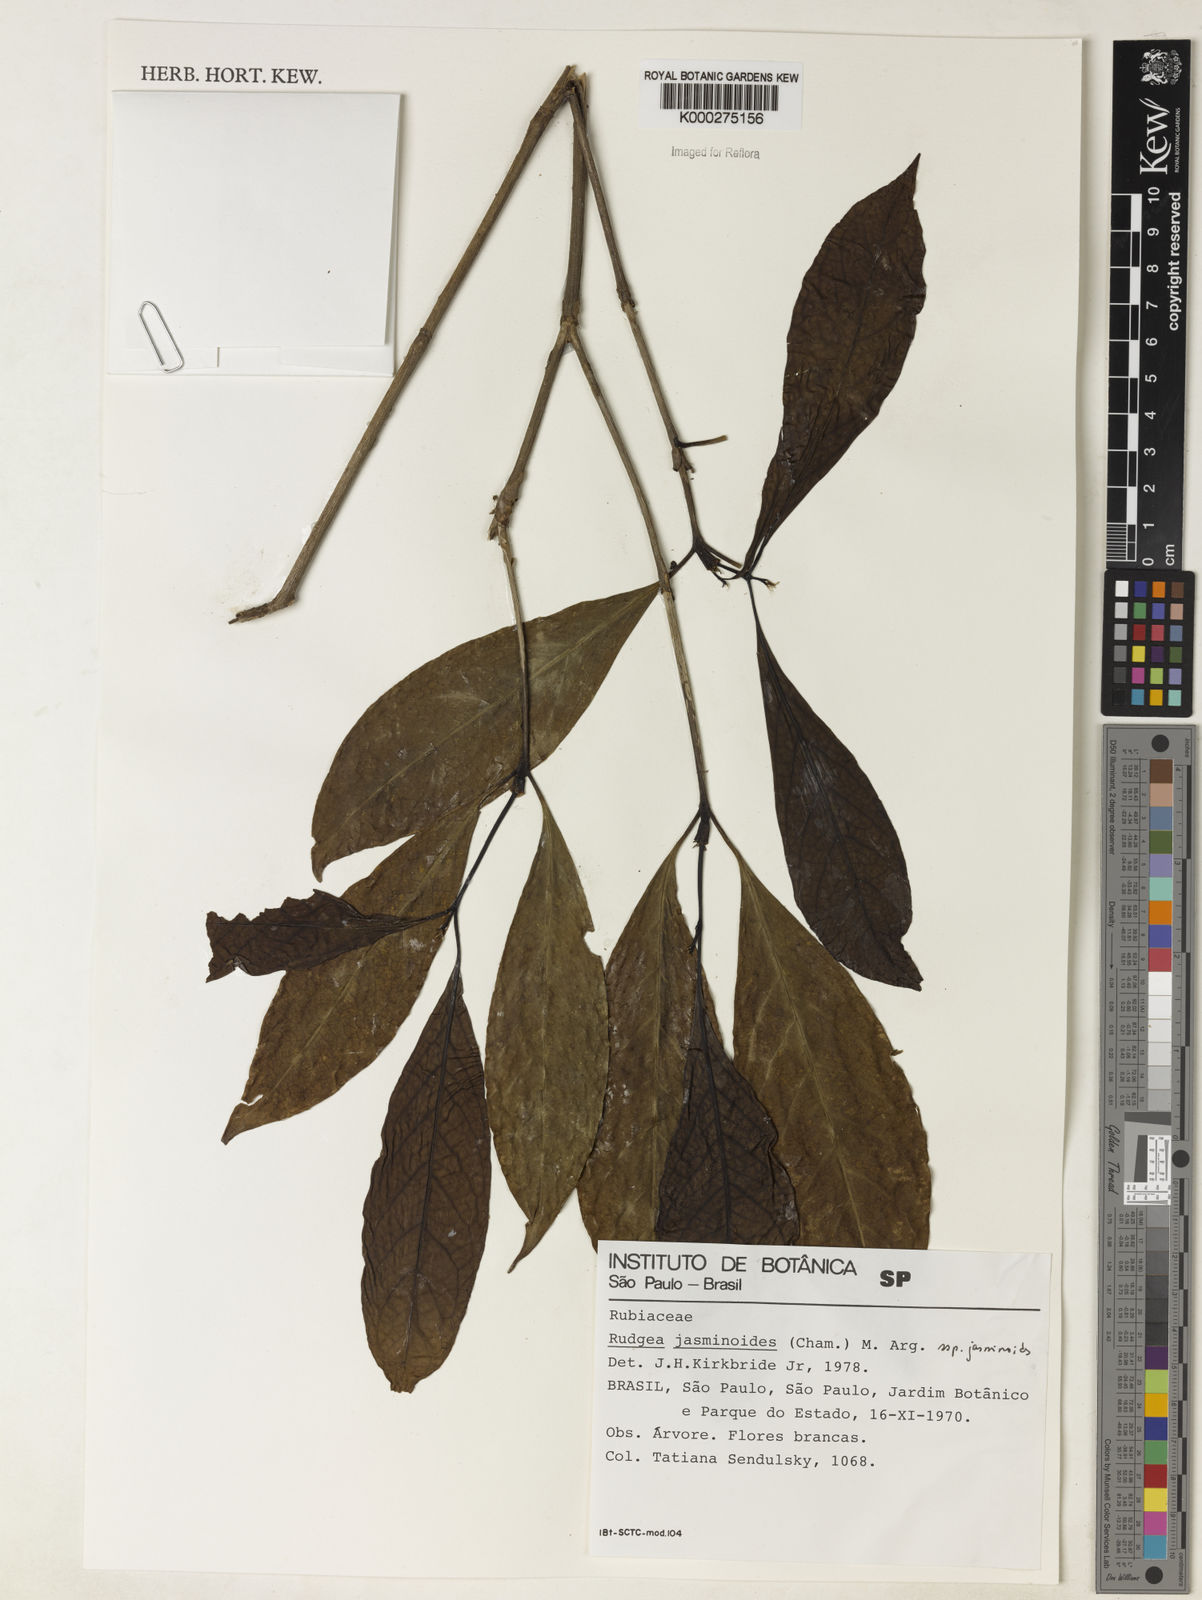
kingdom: Plantae
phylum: Tracheophyta
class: Magnoliopsida
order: Gentianales
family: Rubiaceae
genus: Rudgea
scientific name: Rudgea jasminoides
